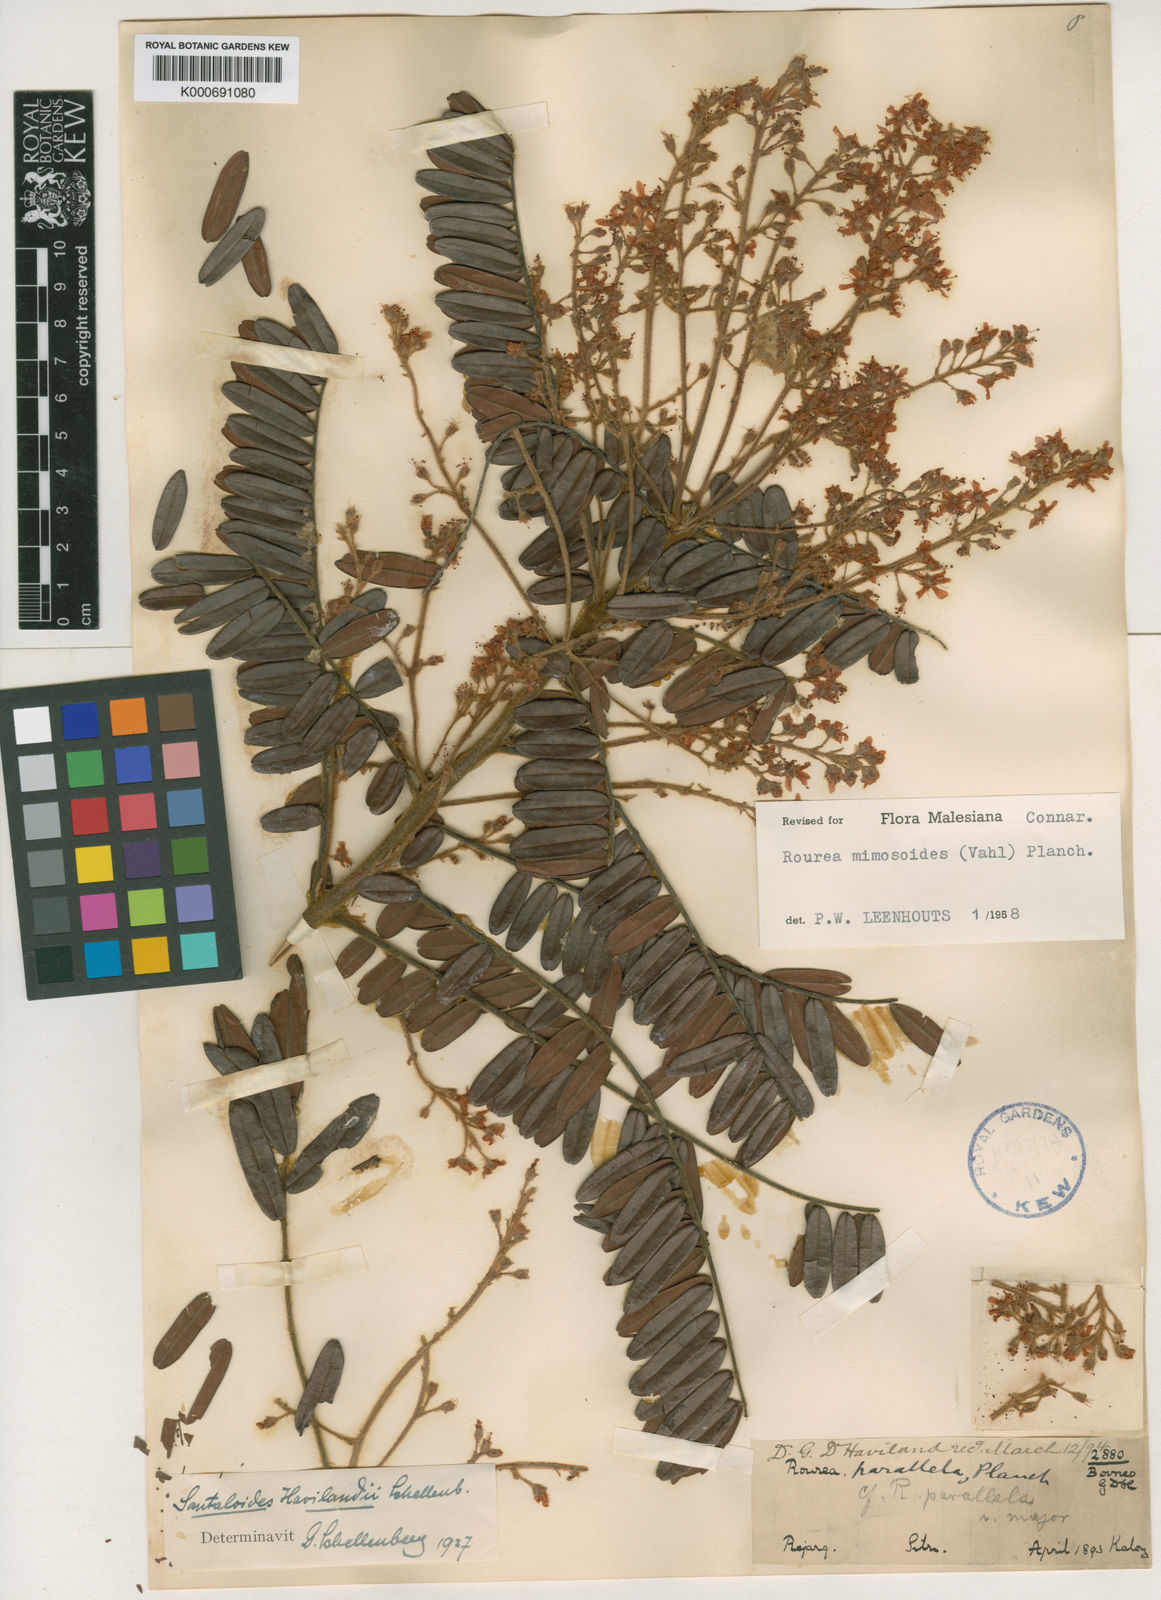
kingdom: Plantae
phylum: Tracheophyta
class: Magnoliopsida
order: Oxalidales
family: Connaraceae
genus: Rourea
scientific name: Rourea mimosoides
